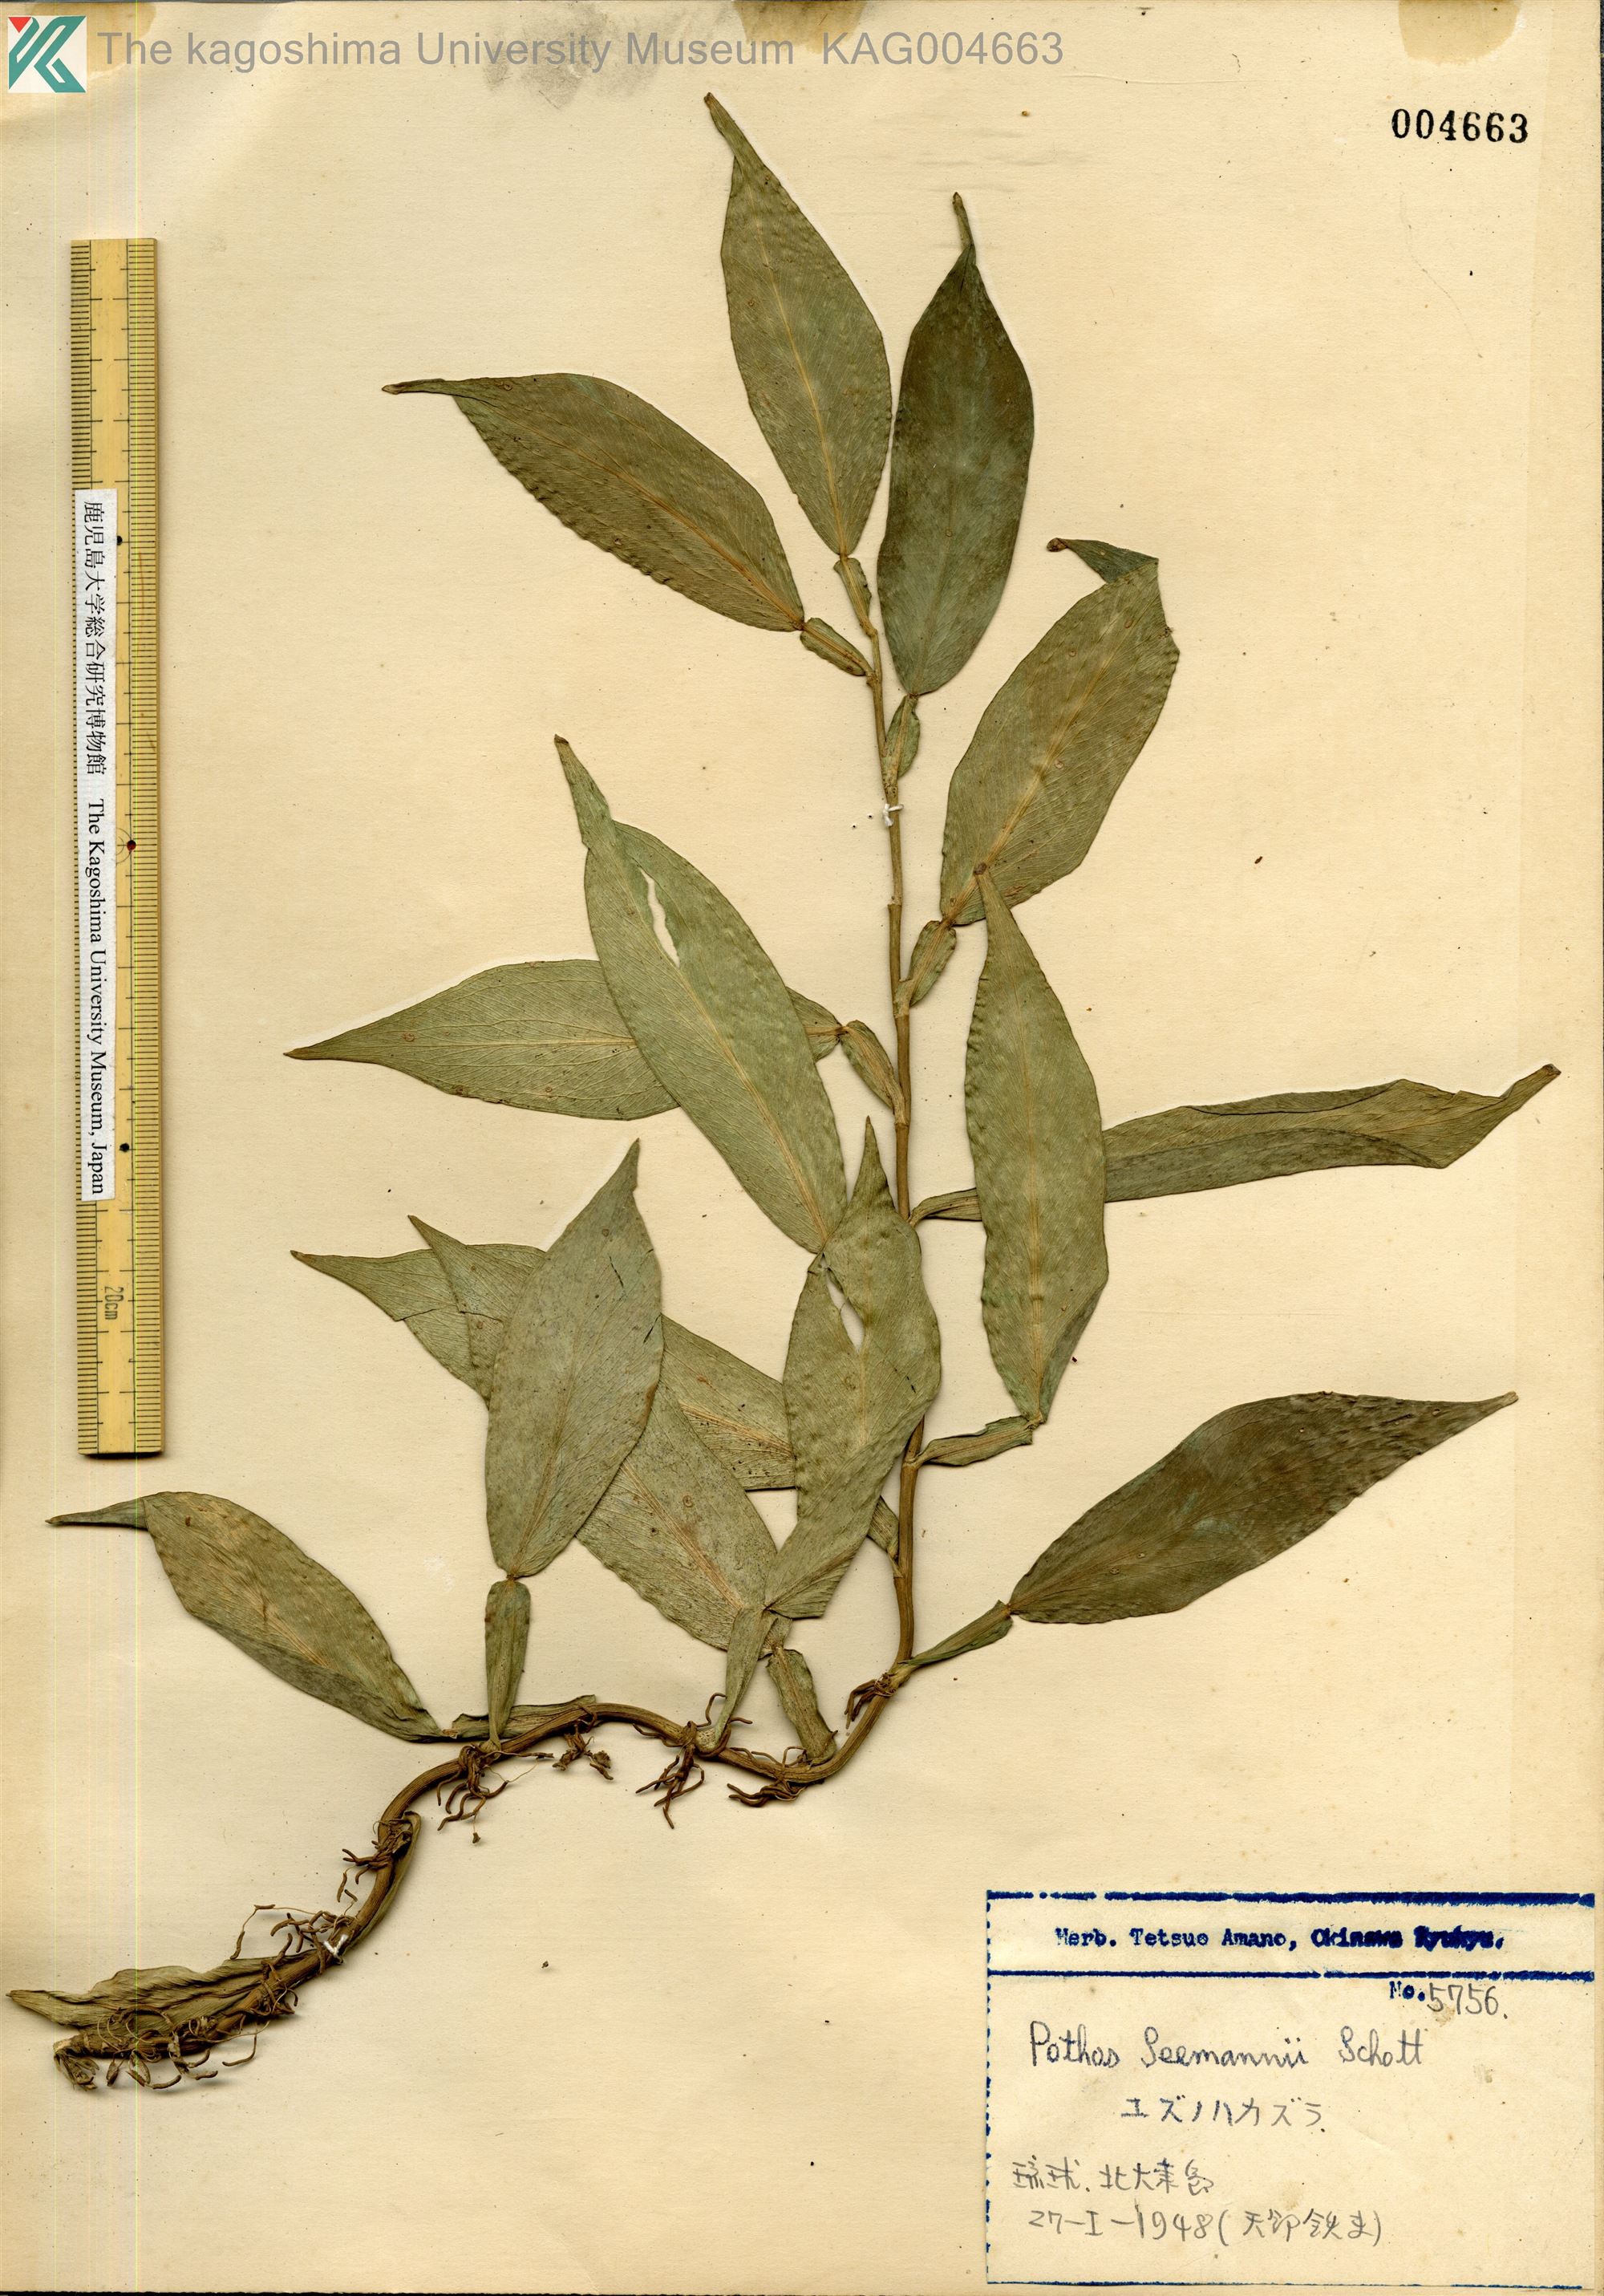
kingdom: Plantae
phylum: Tracheophyta
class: Liliopsida
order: Alismatales
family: Araceae
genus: Pothos
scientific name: Pothos chinensis
